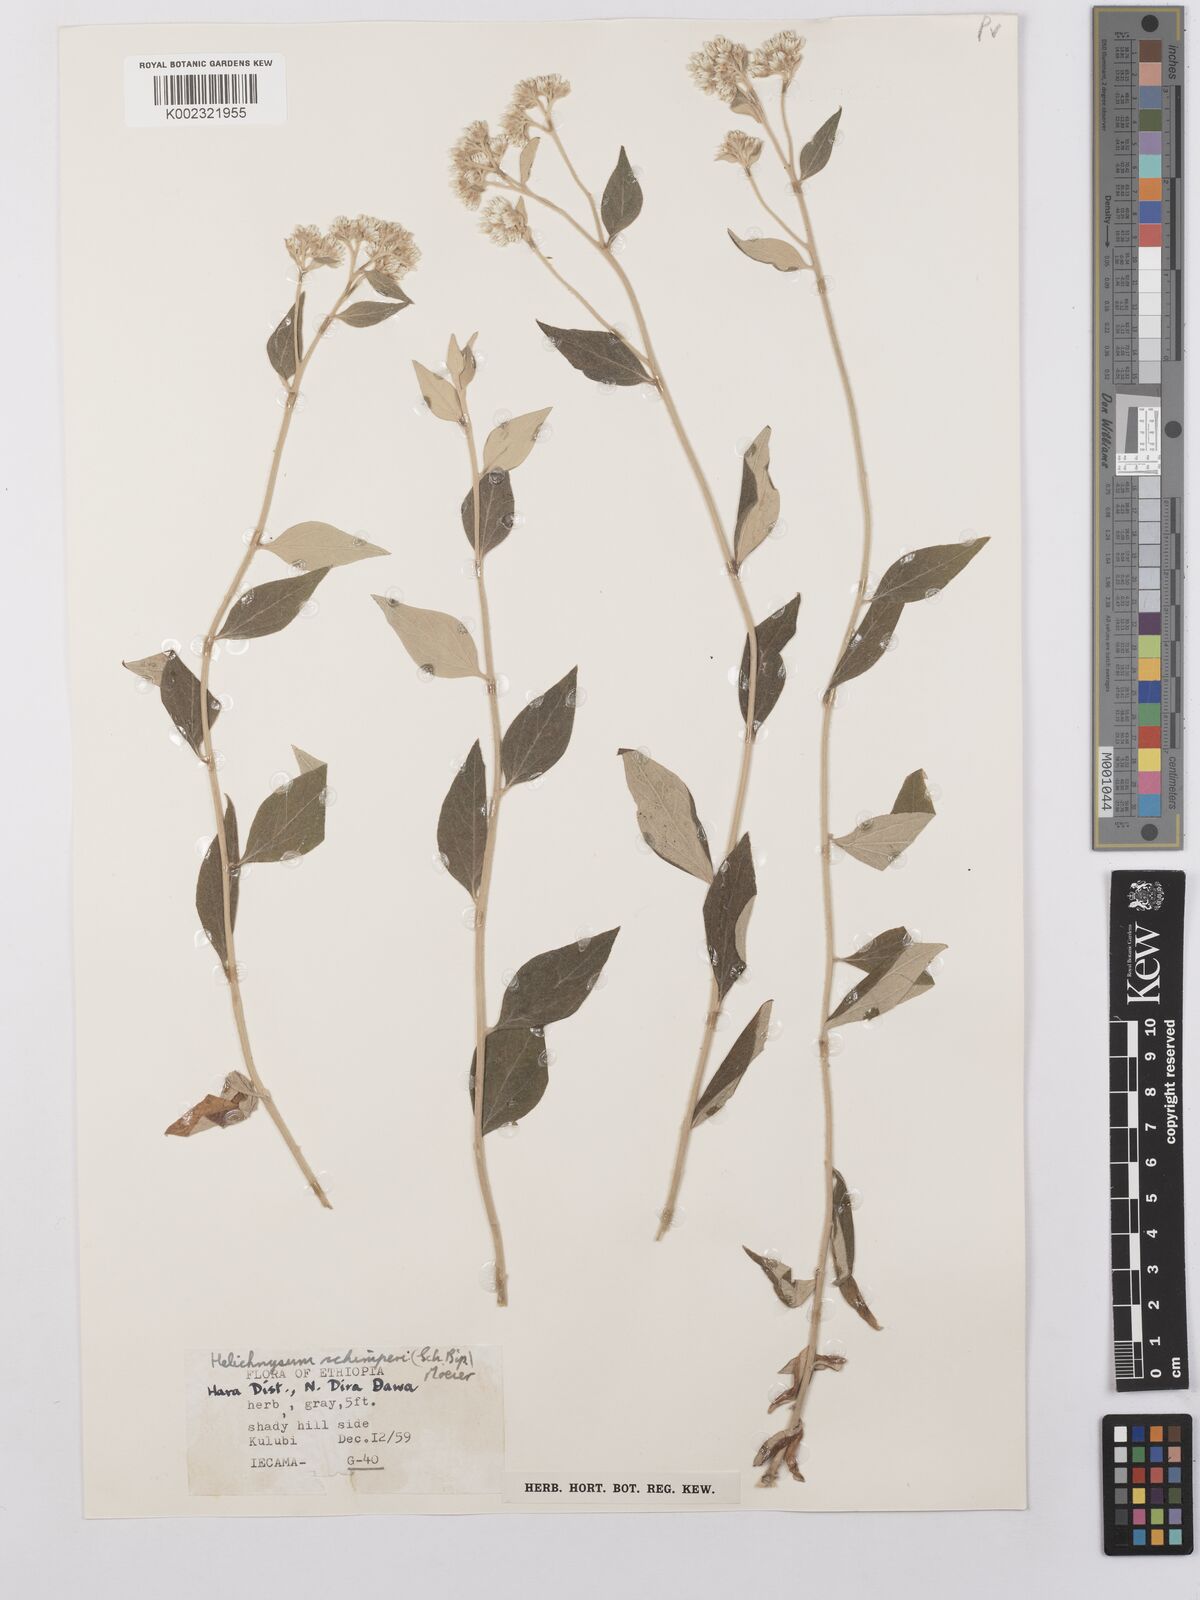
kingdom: Plantae
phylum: Tracheophyta
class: Magnoliopsida
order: Asterales
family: Asteraceae
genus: Helichrysum
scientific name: Helichrysum schimperi
